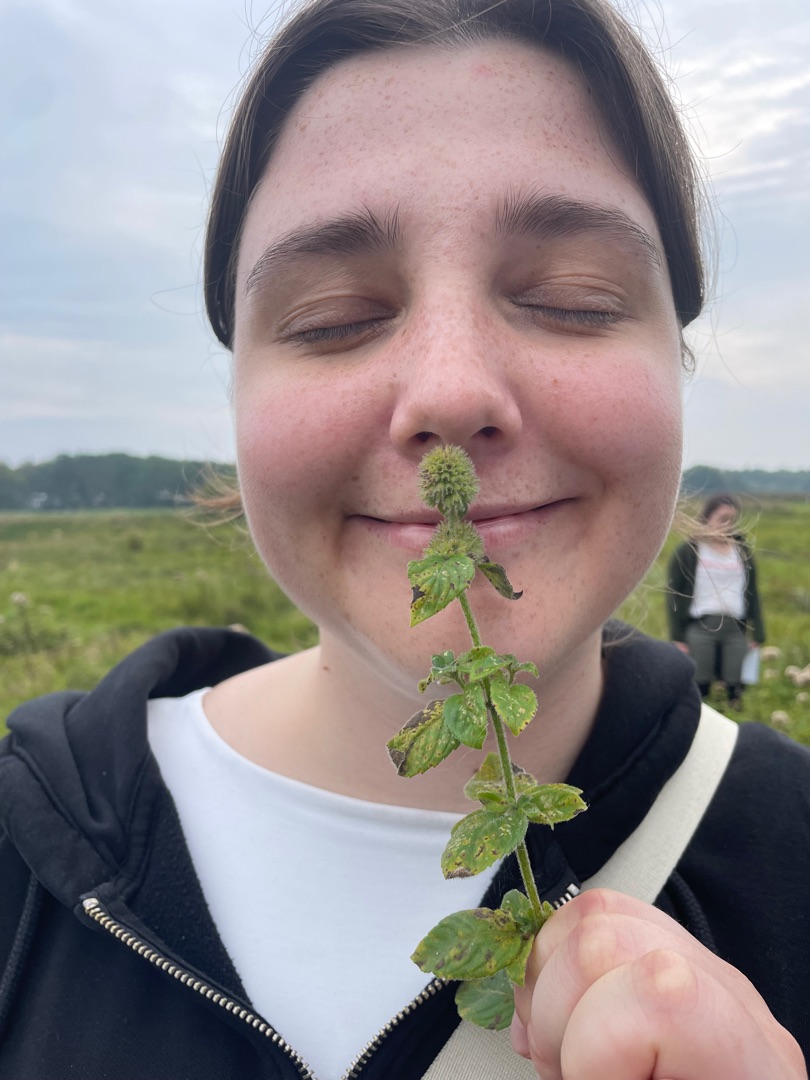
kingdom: Plantae
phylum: Tracheophyta
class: Magnoliopsida
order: Lamiales
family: Lamiaceae
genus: Mentha
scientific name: Mentha aquatica
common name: Vand-mynte
